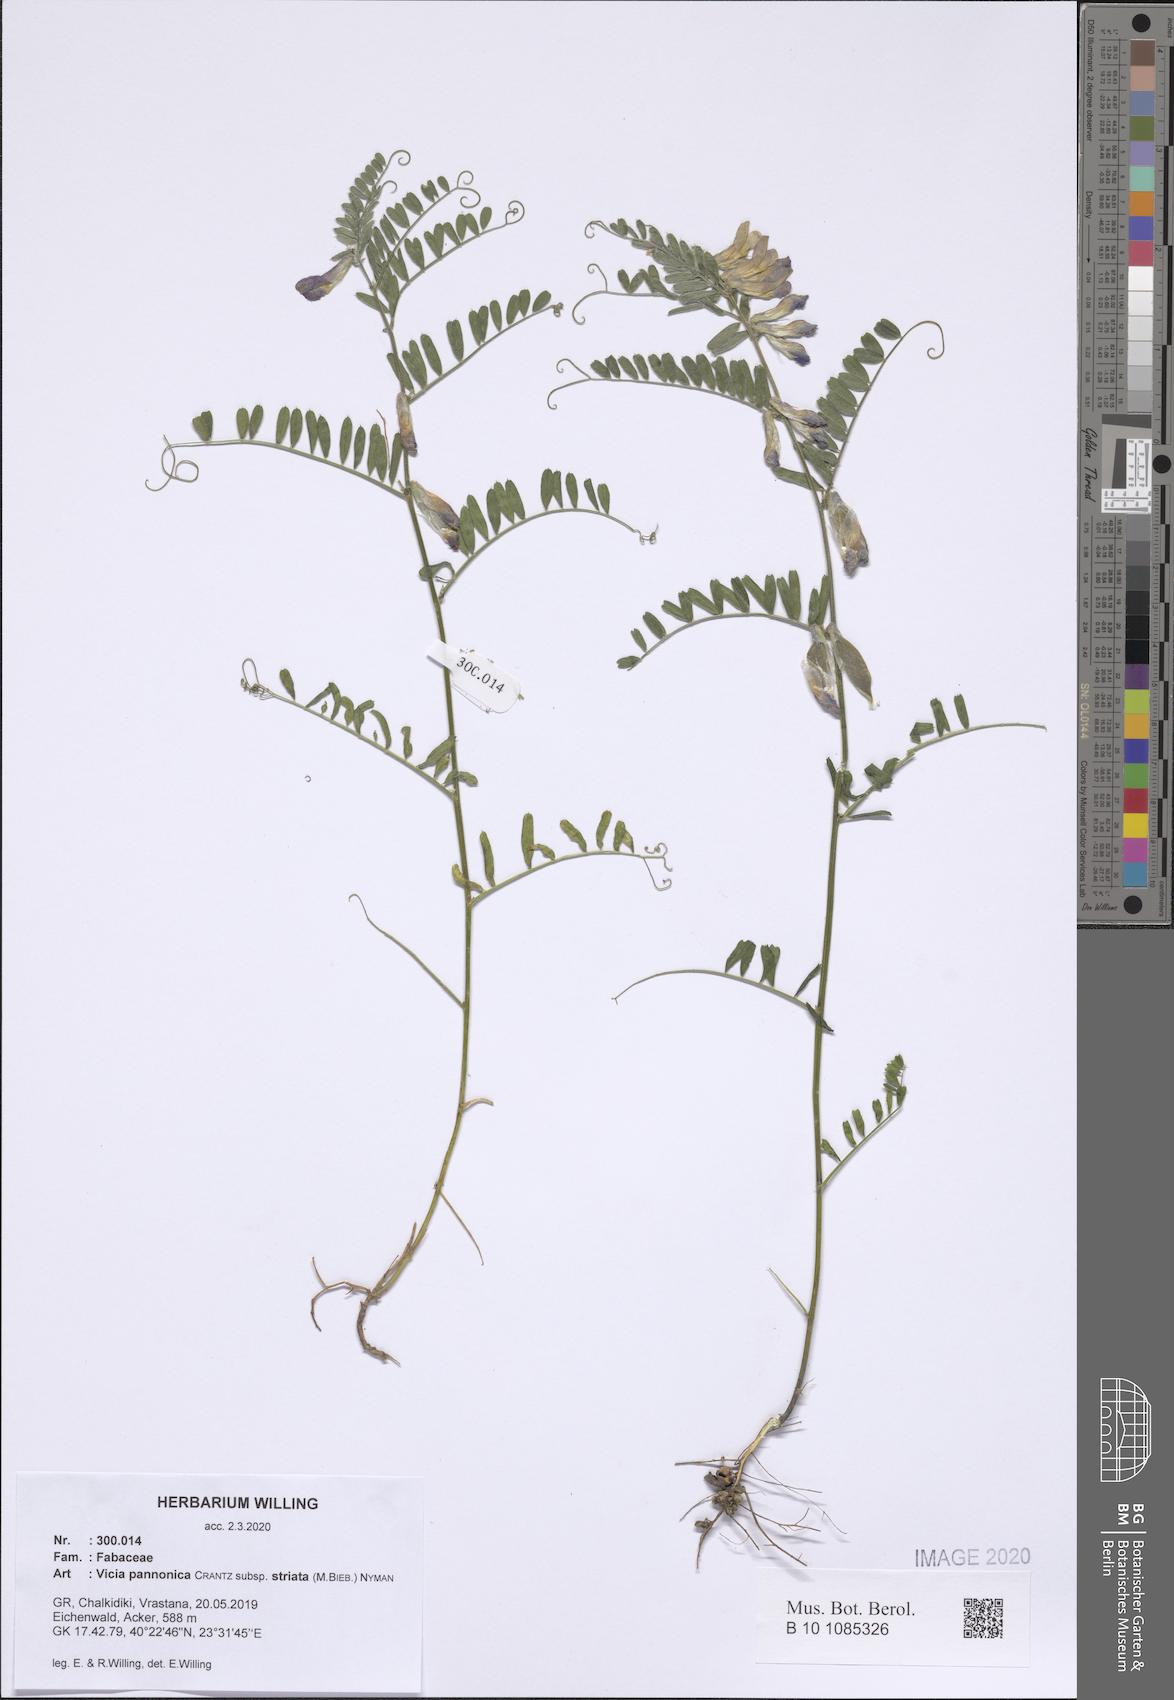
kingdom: Plantae
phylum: Tracheophyta
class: Magnoliopsida
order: Fabales
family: Fabaceae
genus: Vicia
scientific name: Vicia pannonica
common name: Hungarian vetch
